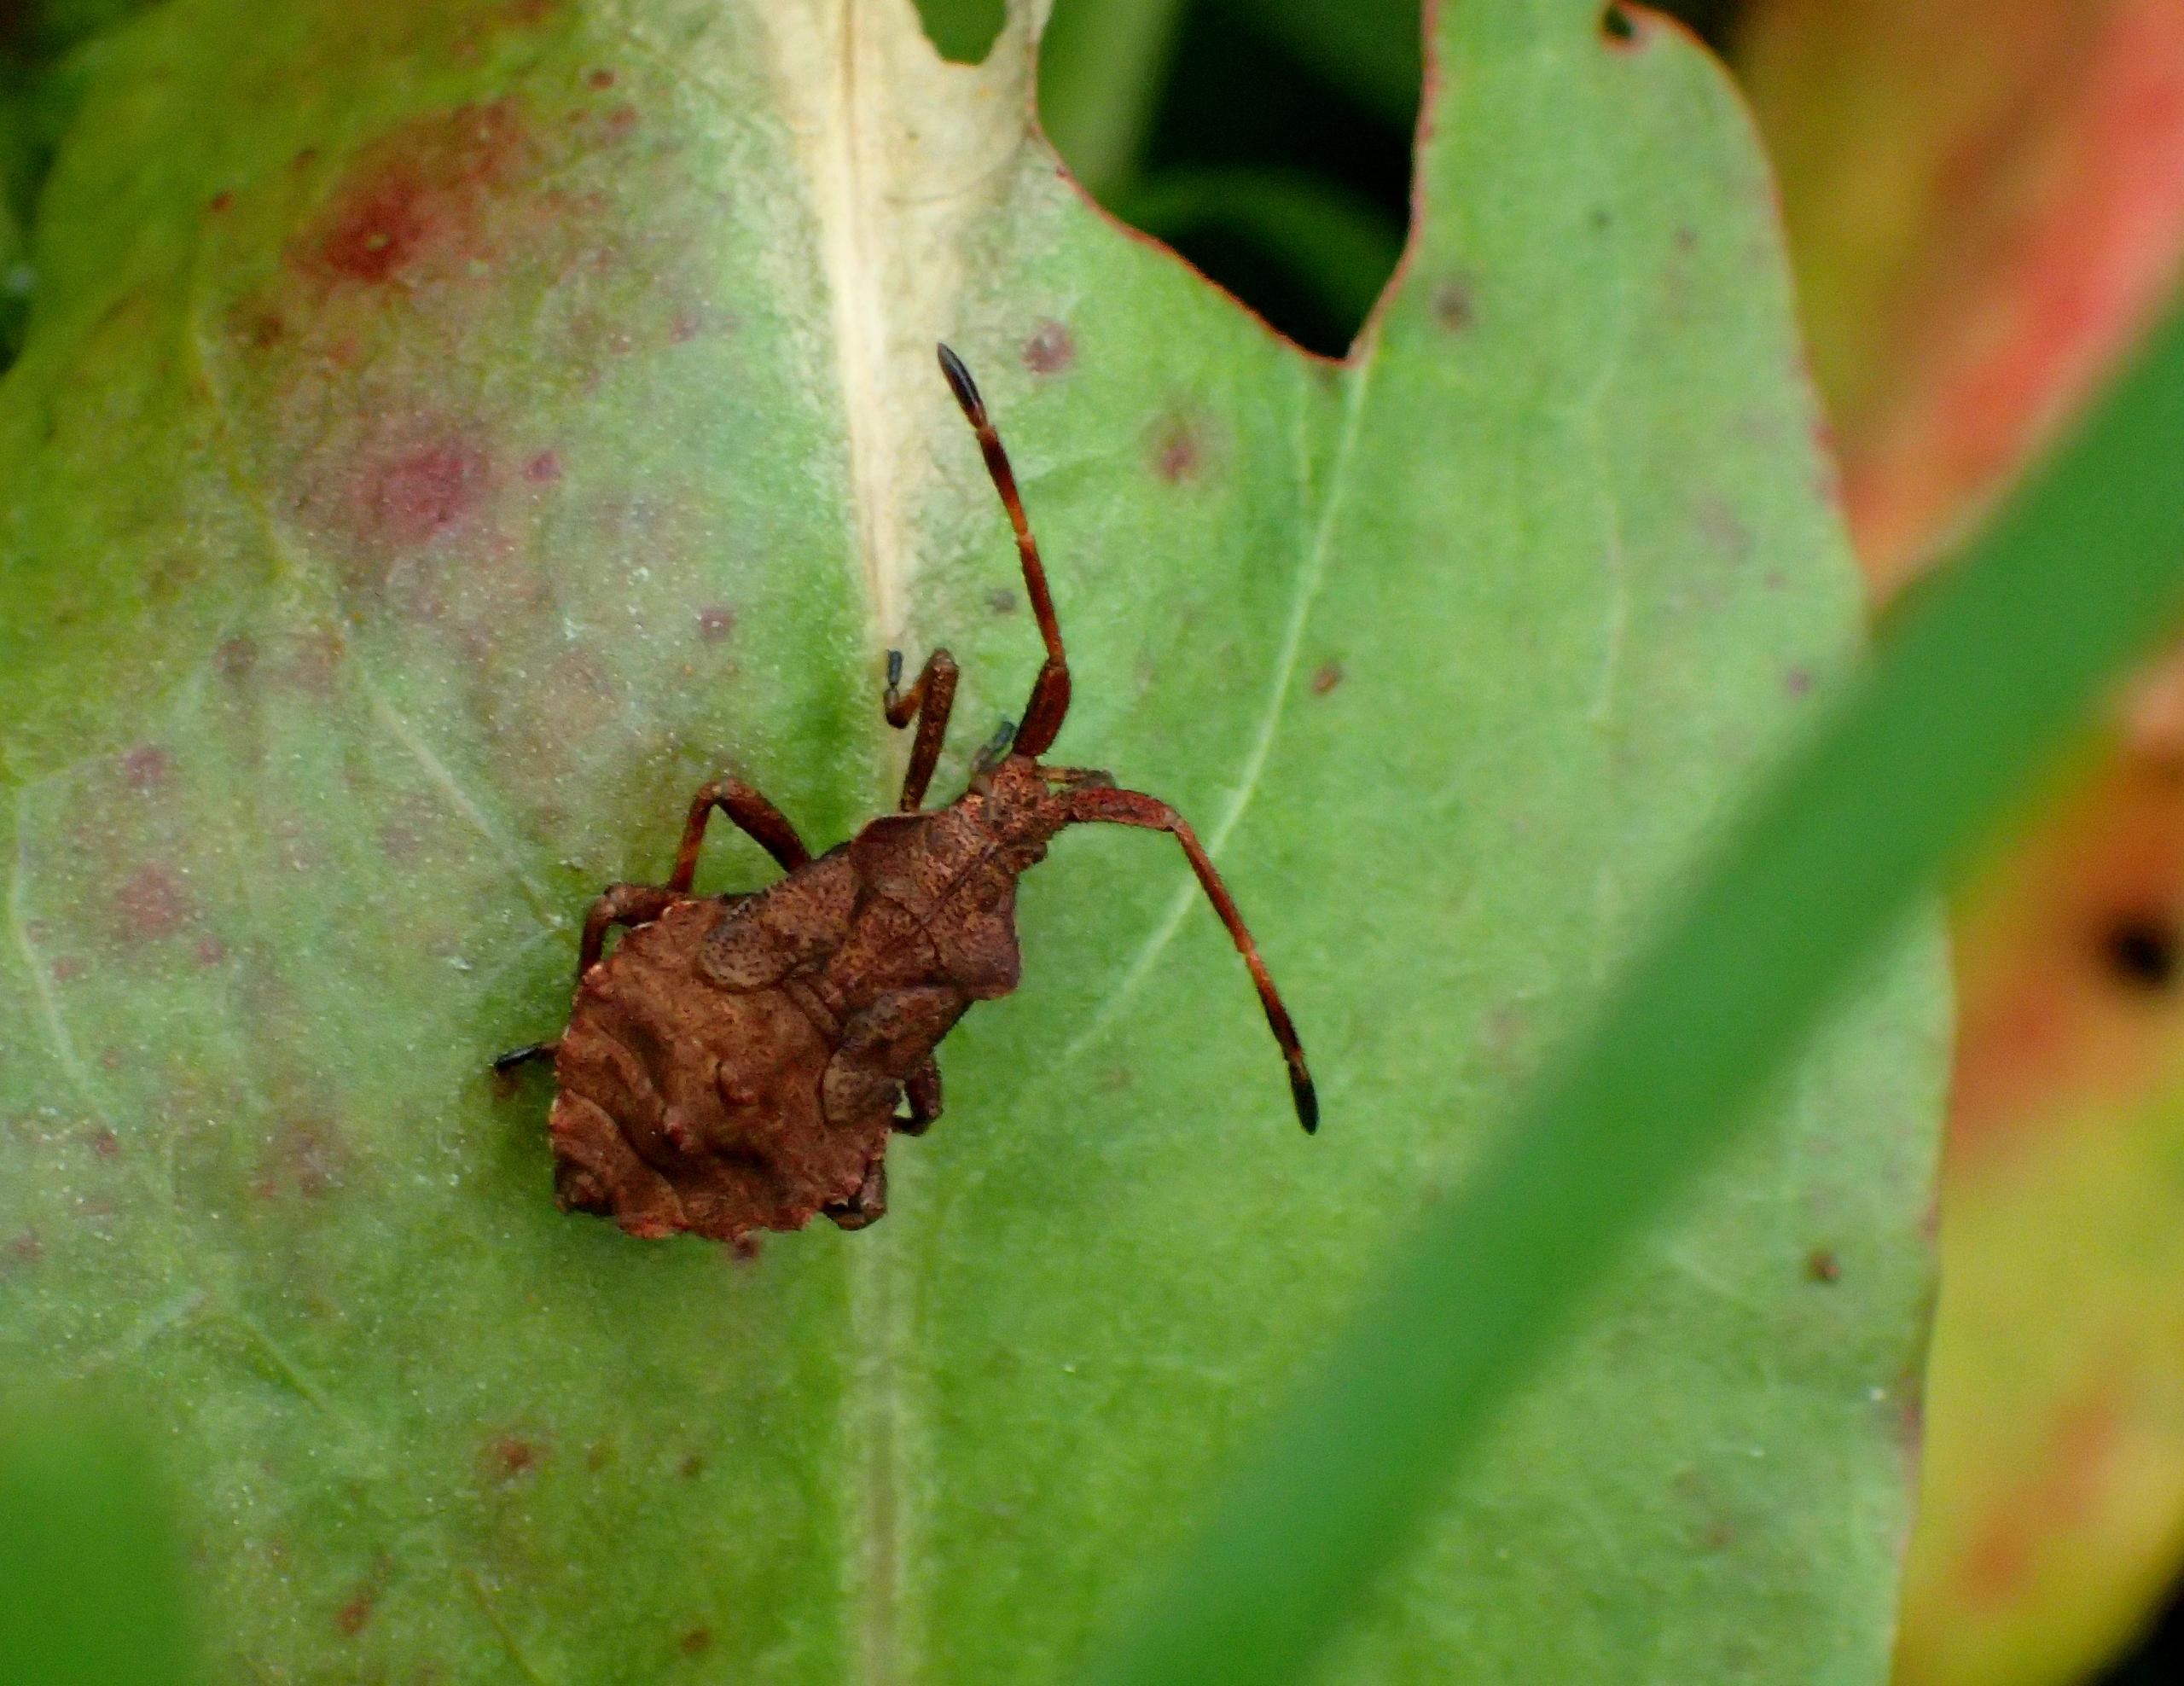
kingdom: Animalia
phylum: Arthropoda
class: Insecta
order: Hemiptera
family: Coreidae
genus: Coreus
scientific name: Coreus marginatus
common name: Skræppetæge
